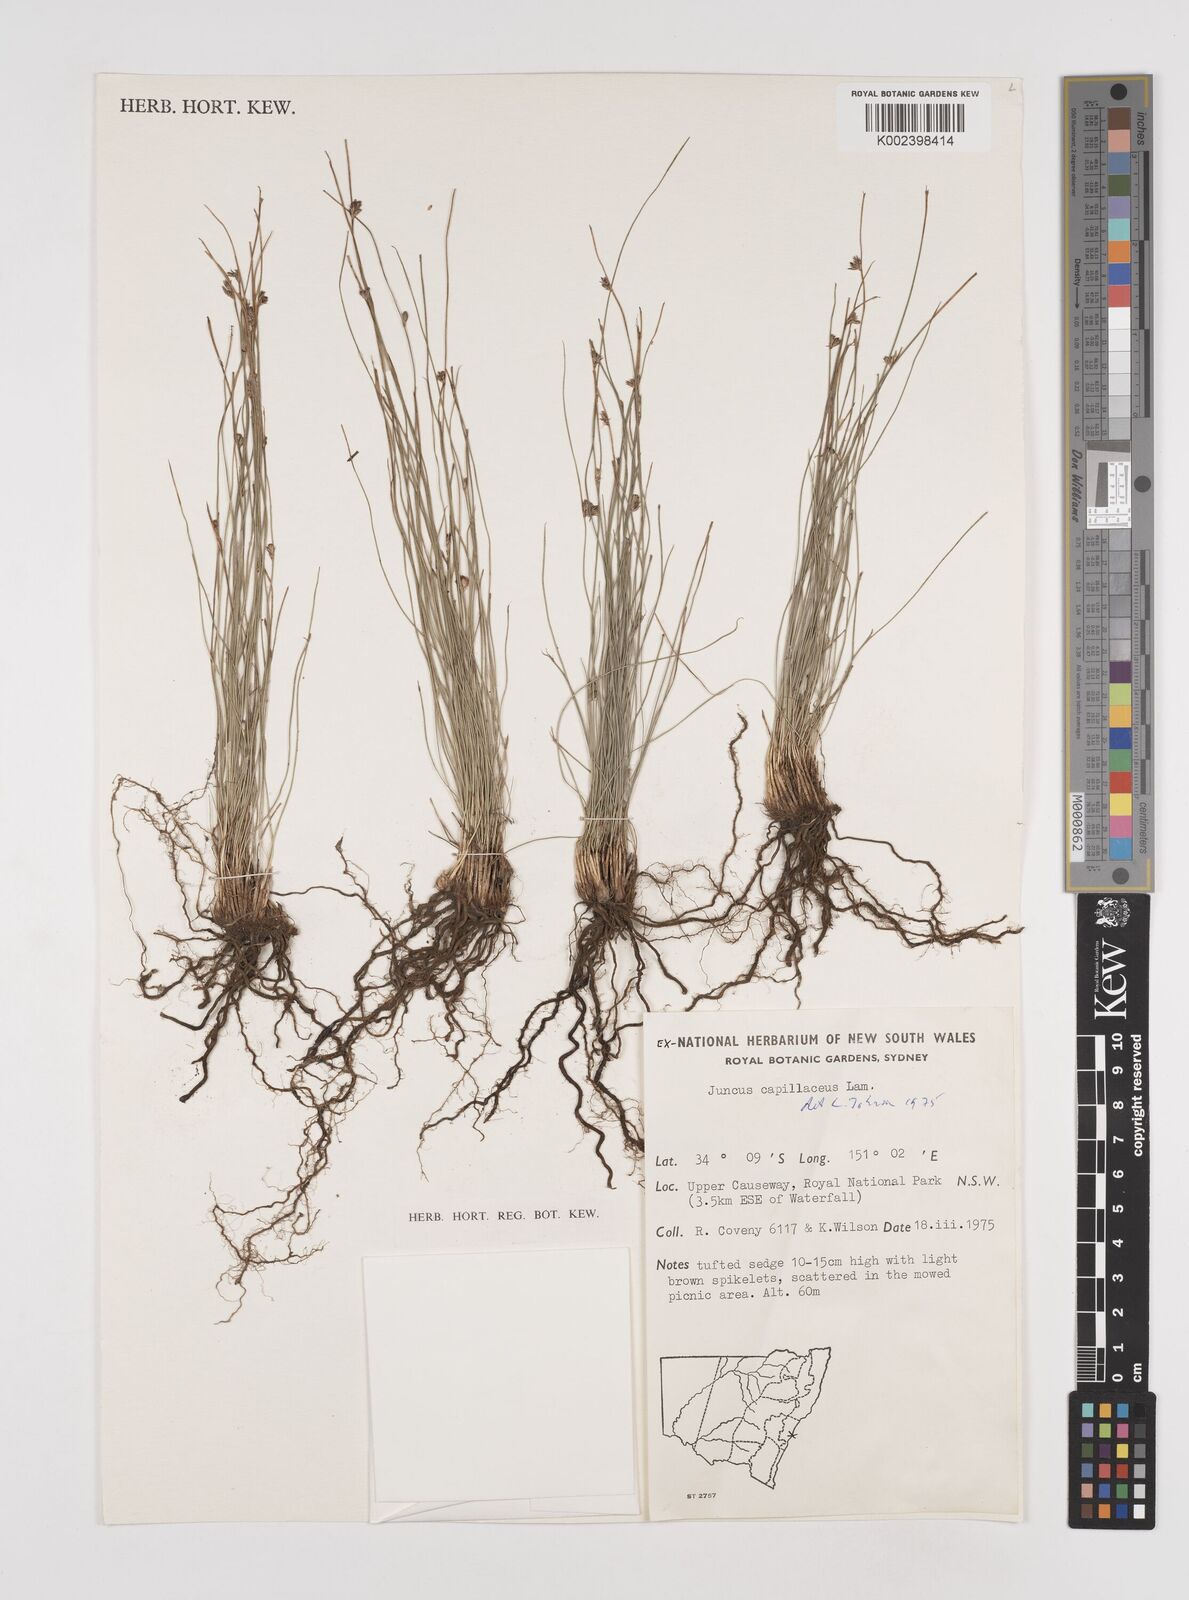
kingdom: Plantae
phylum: Tracheophyta
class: Liliopsida
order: Poales
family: Juncaceae
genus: Juncus
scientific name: Juncus capillaceus
